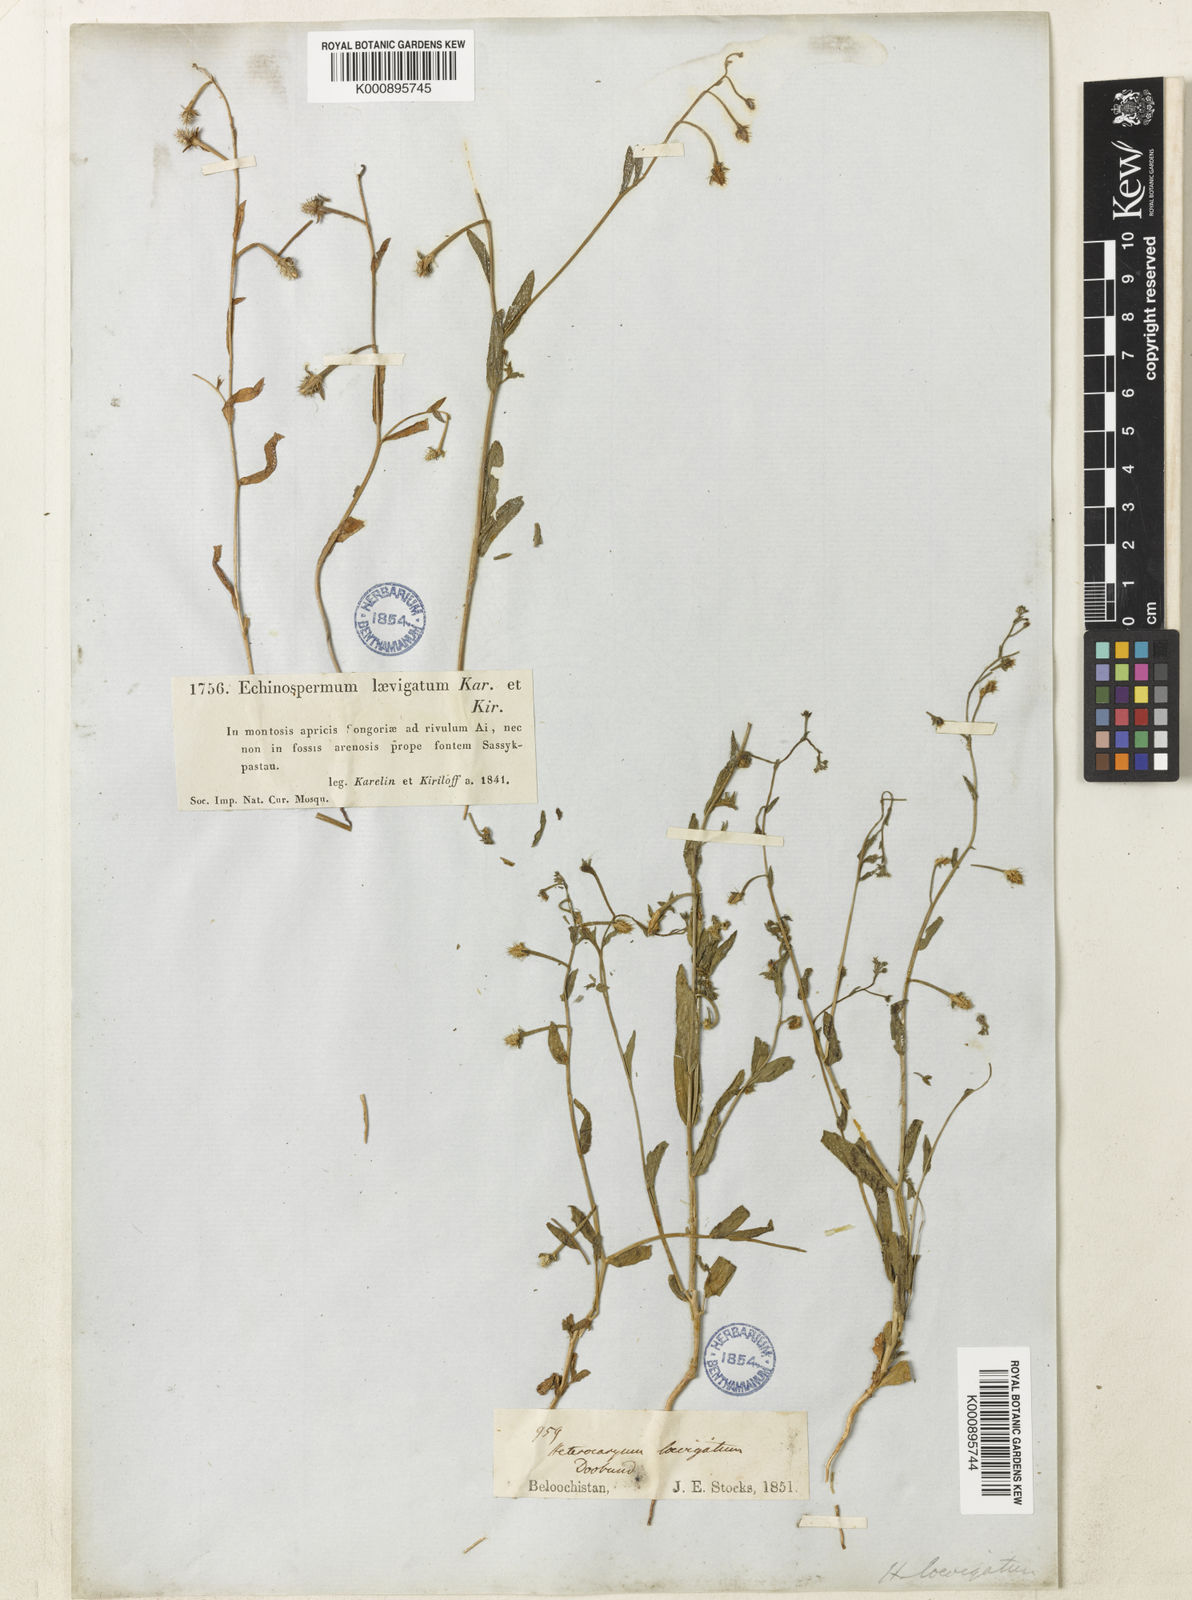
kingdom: Plantae
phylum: Tracheophyta
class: Magnoliopsida
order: Boraginales
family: Boraginaceae
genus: Heterocaryum
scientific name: Heterocaryum laevigatum
